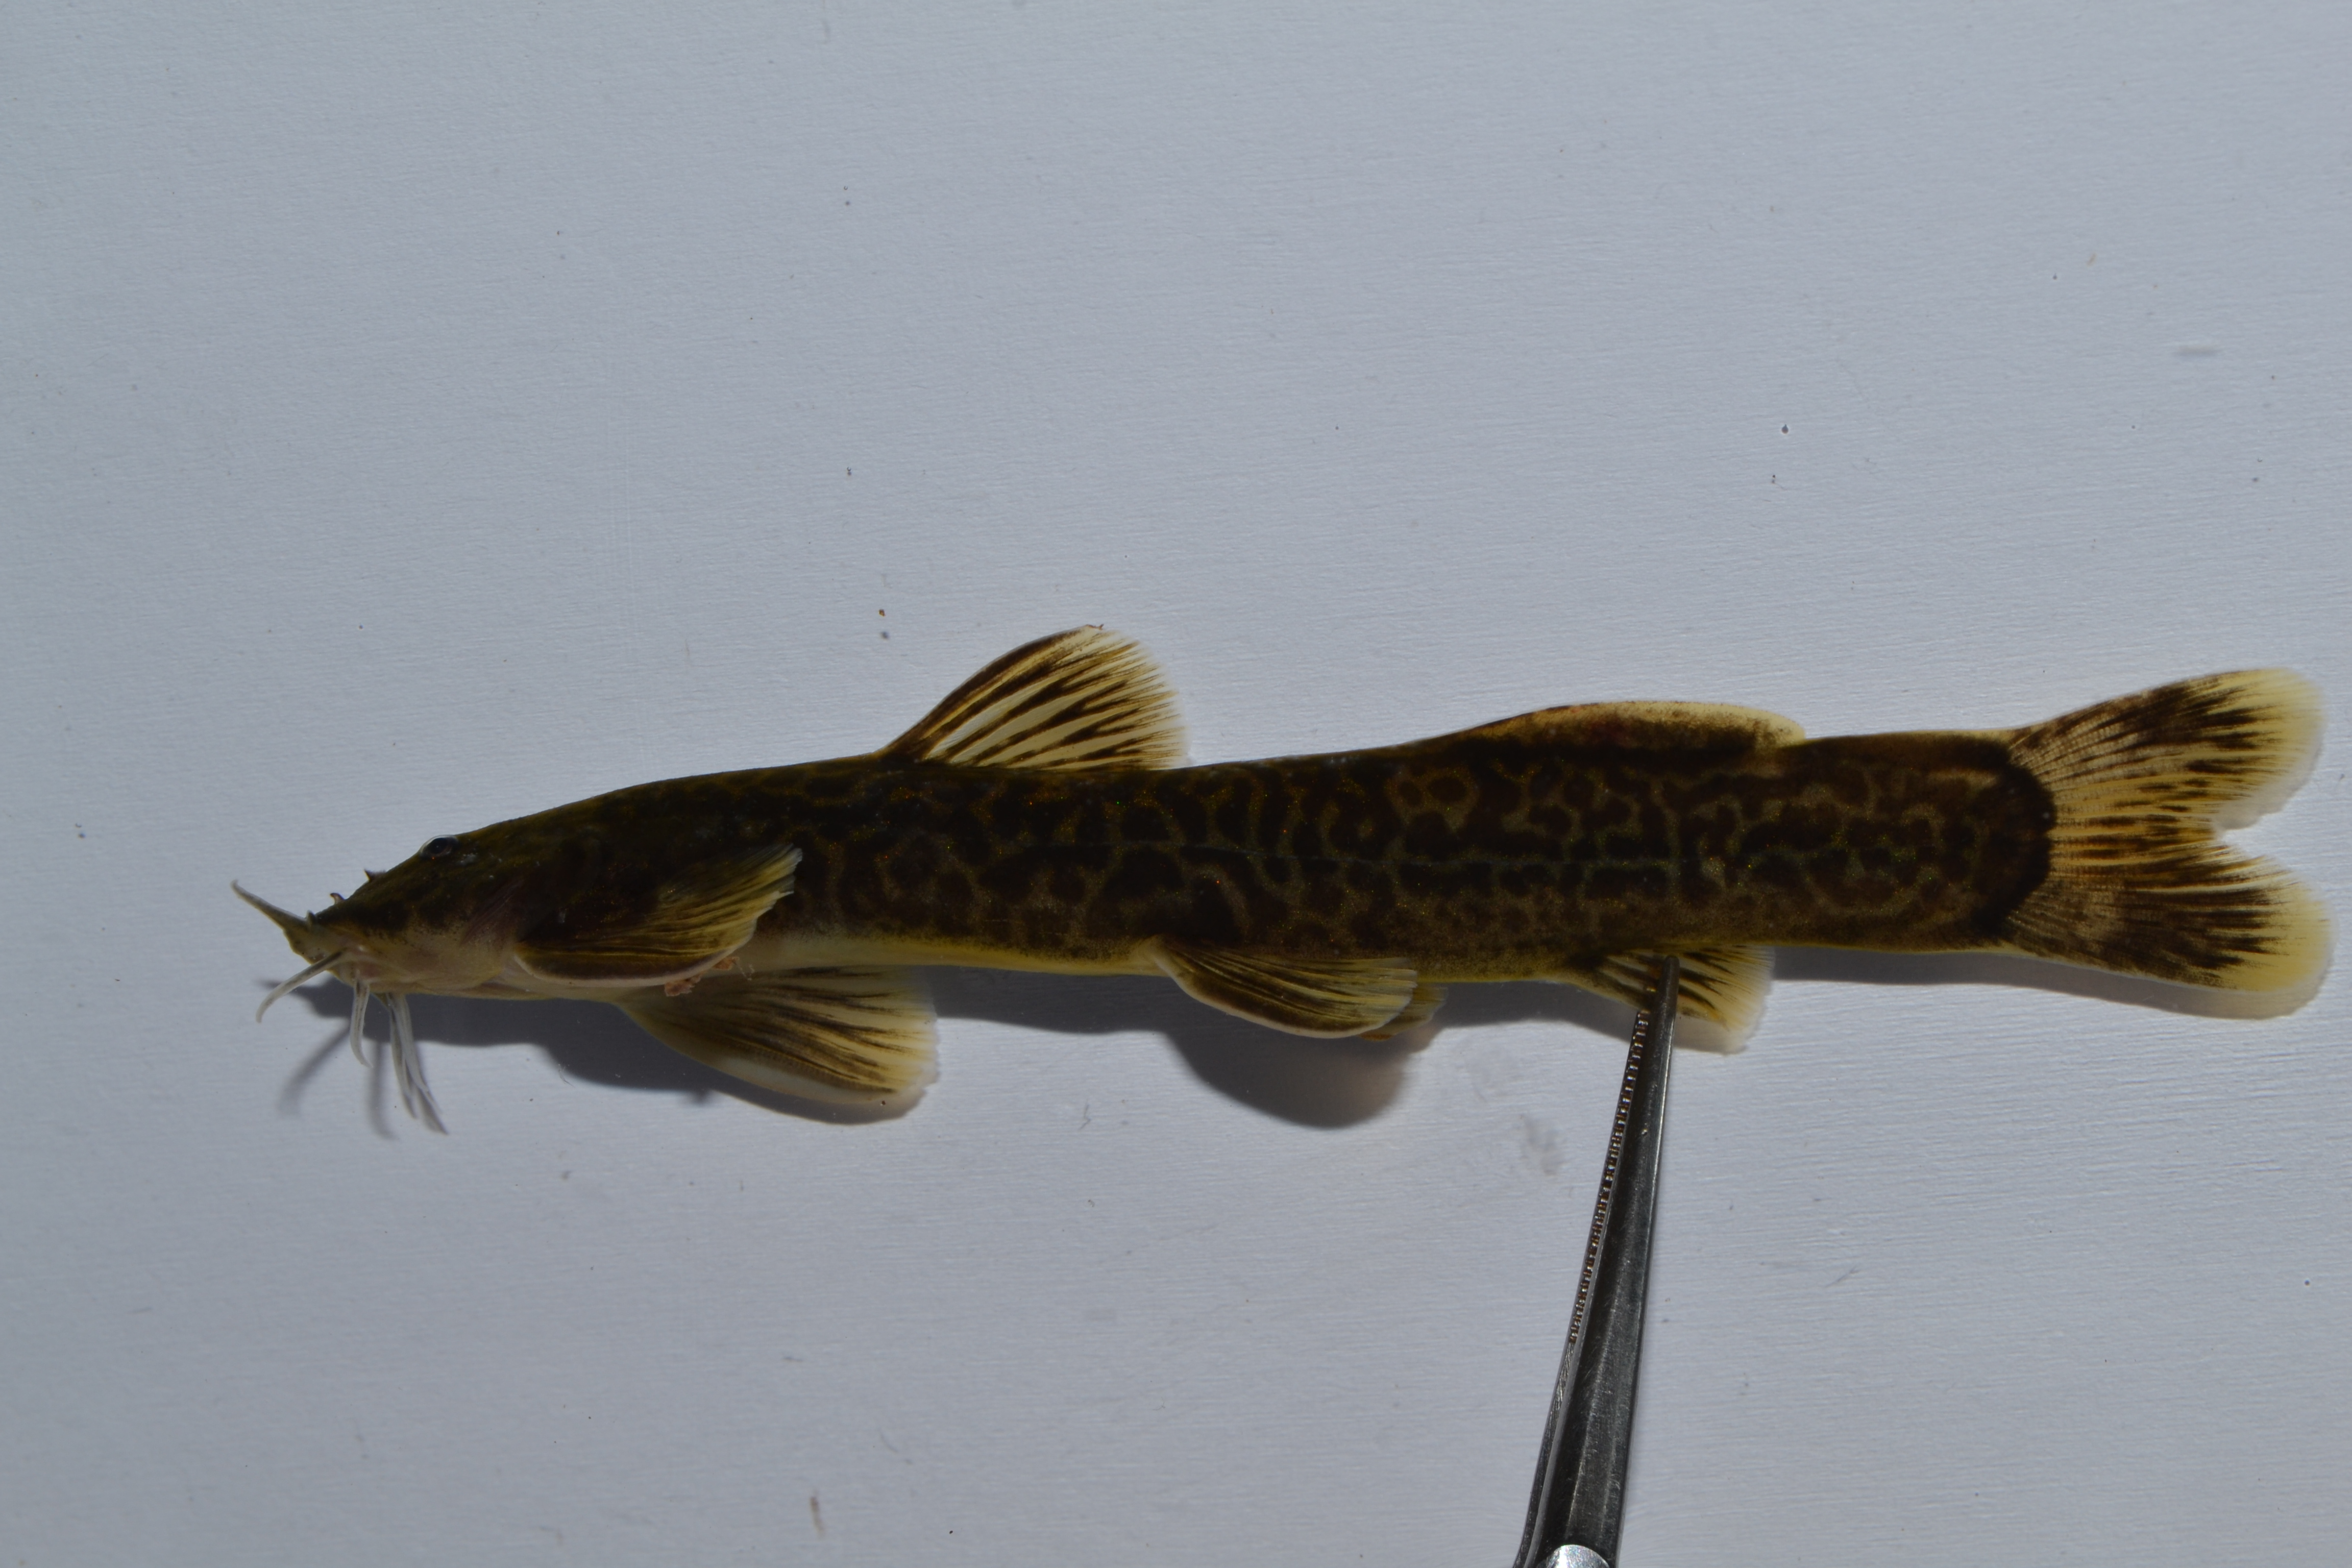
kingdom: Animalia
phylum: Chordata
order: Siluriformes
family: Amphiliidae
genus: Amphilius
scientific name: Amphilius uranoscopus
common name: Stargazer mountain catfish
